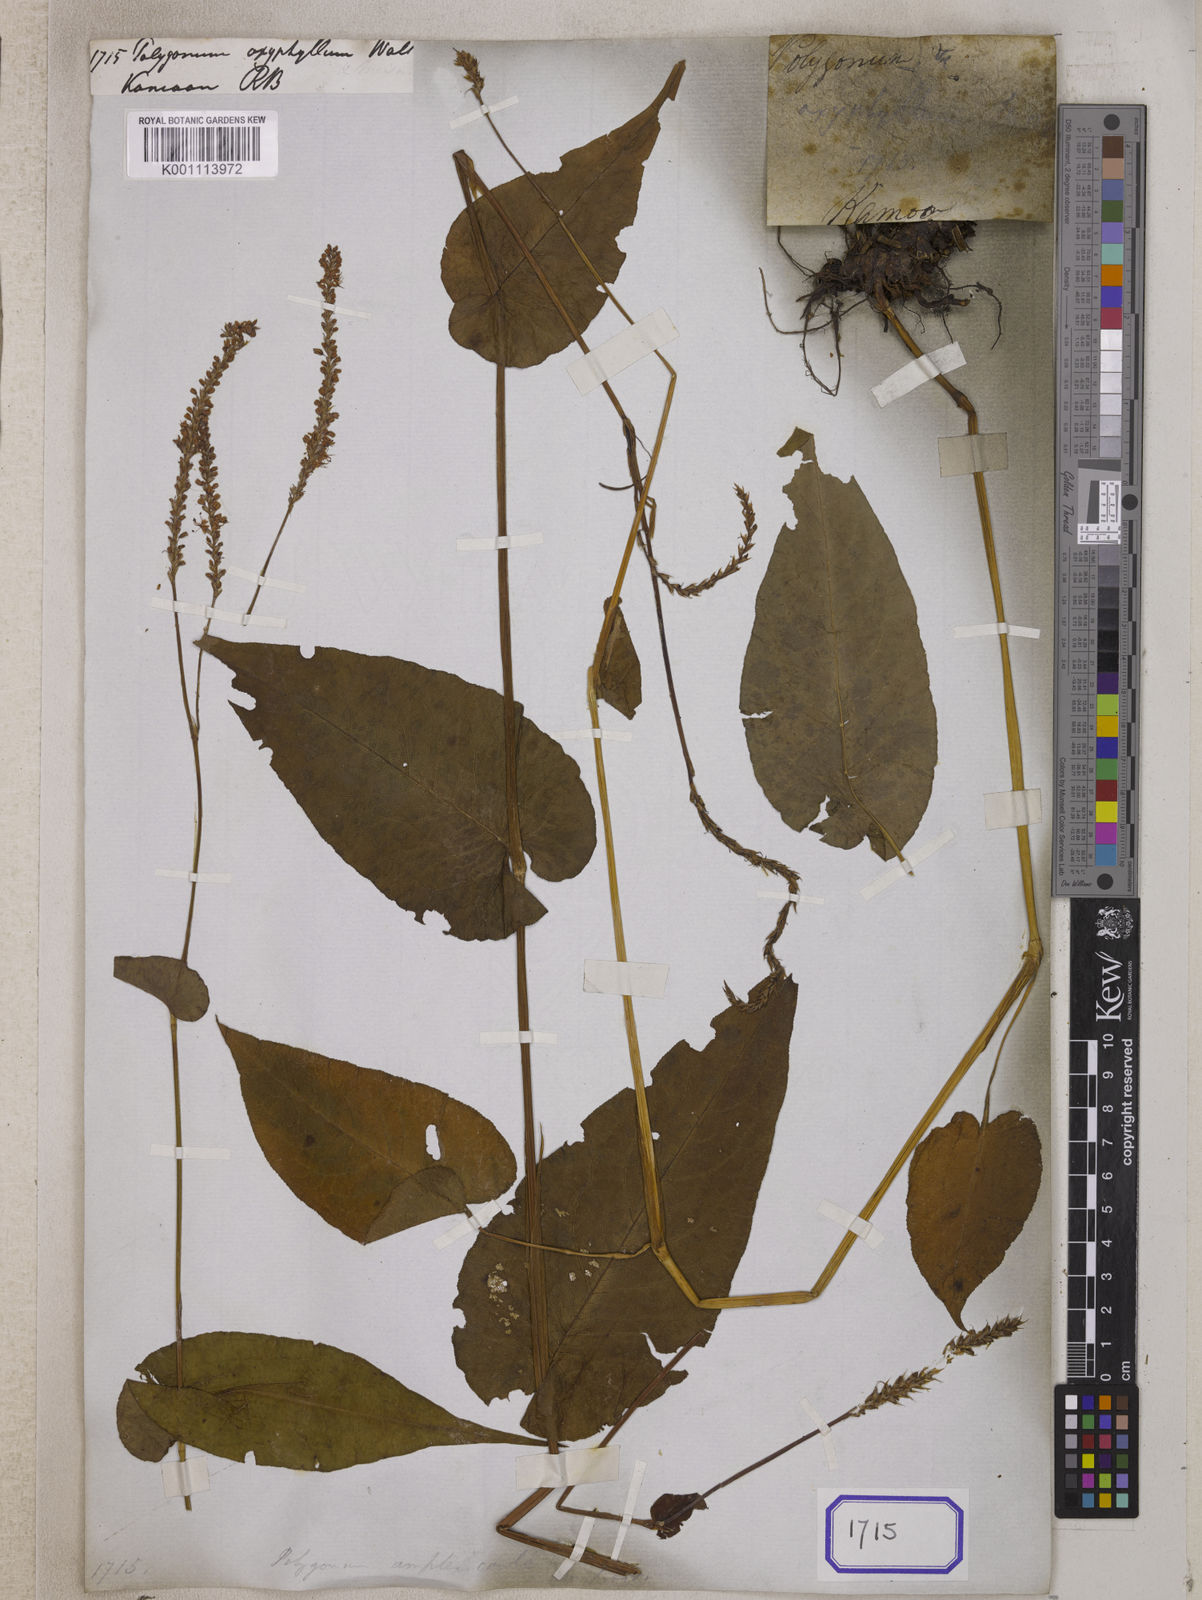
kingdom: Plantae
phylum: Tracheophyta
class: Magnoliopsida
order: Caryophyllales
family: Polygonaceae
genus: Polygonum
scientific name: Polygonum
